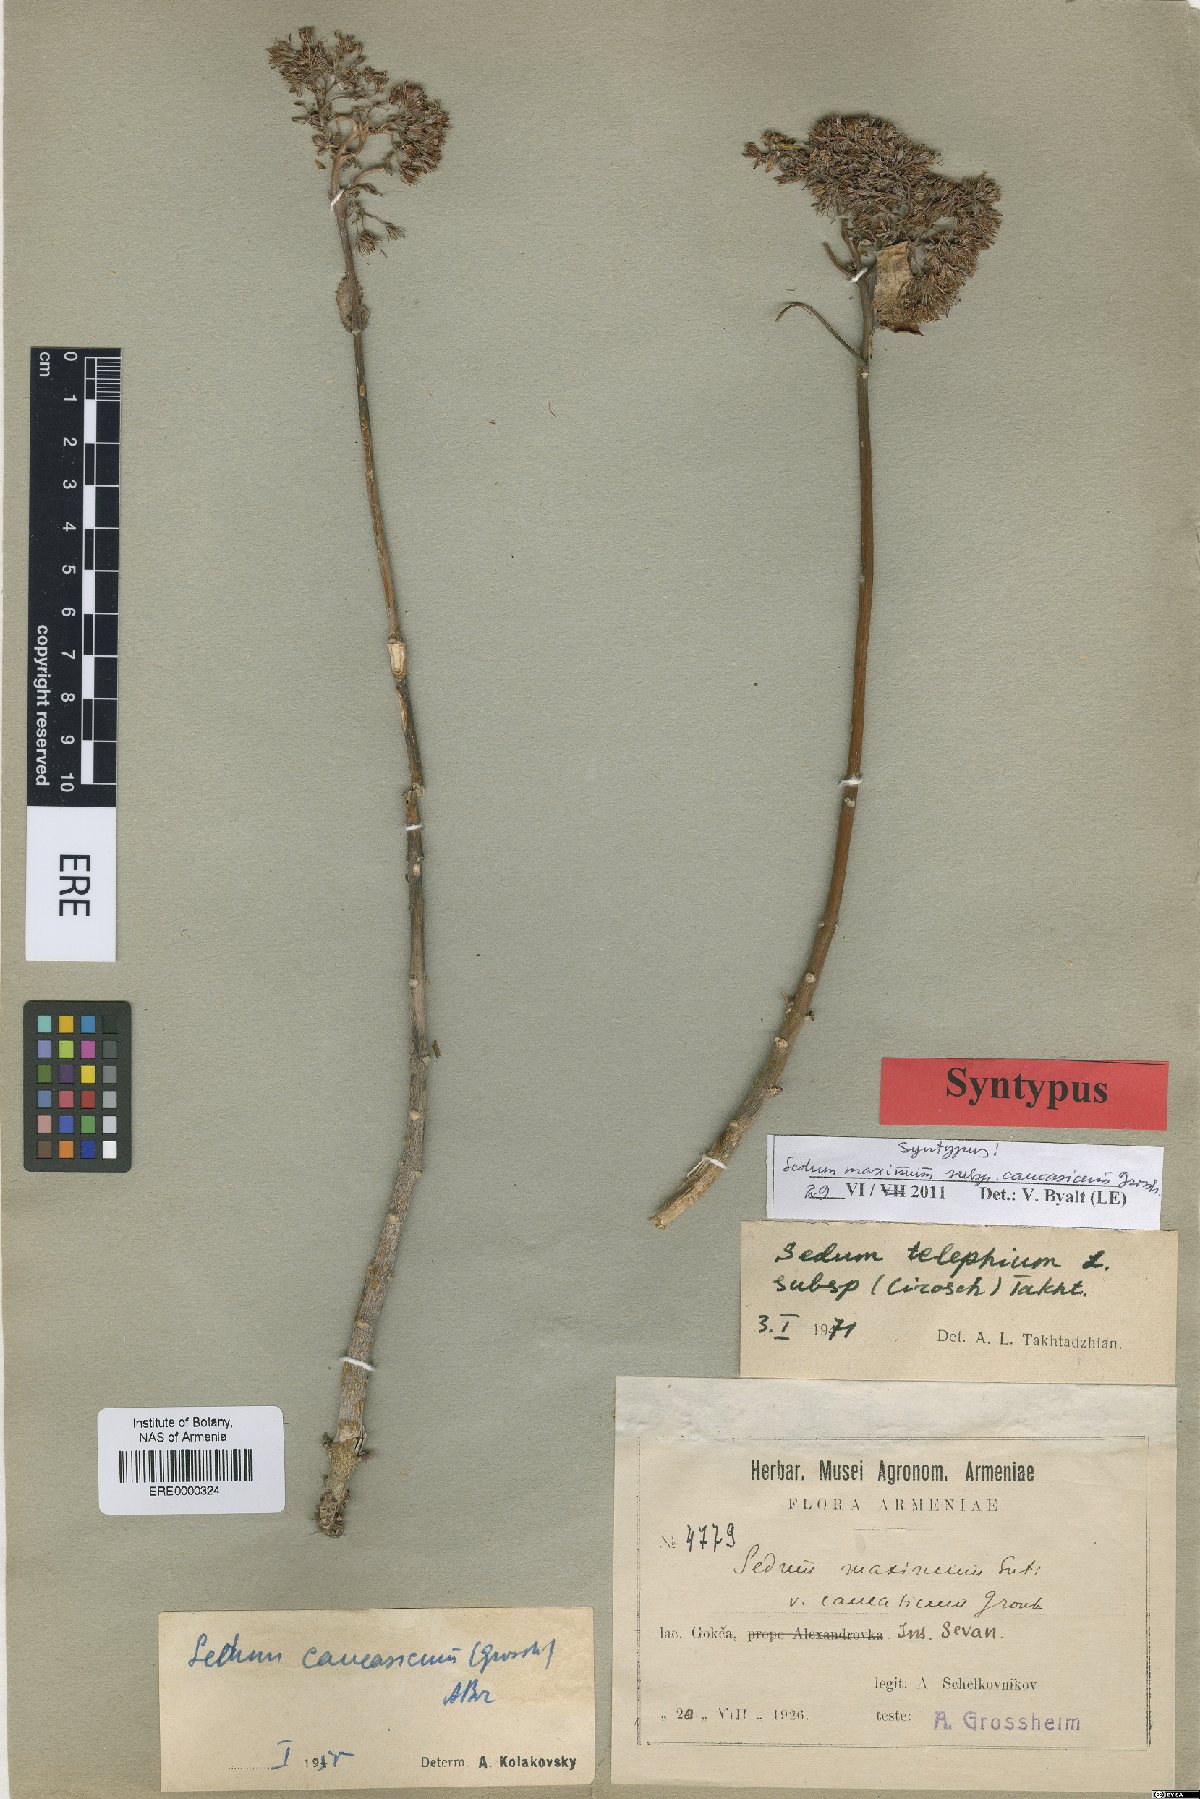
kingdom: Plantae
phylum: Tracheophyta
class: Magnoliopsida
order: Saxifragales
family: Crassulaceae
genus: Hylotelephium
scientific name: Hylotelephium maximum
